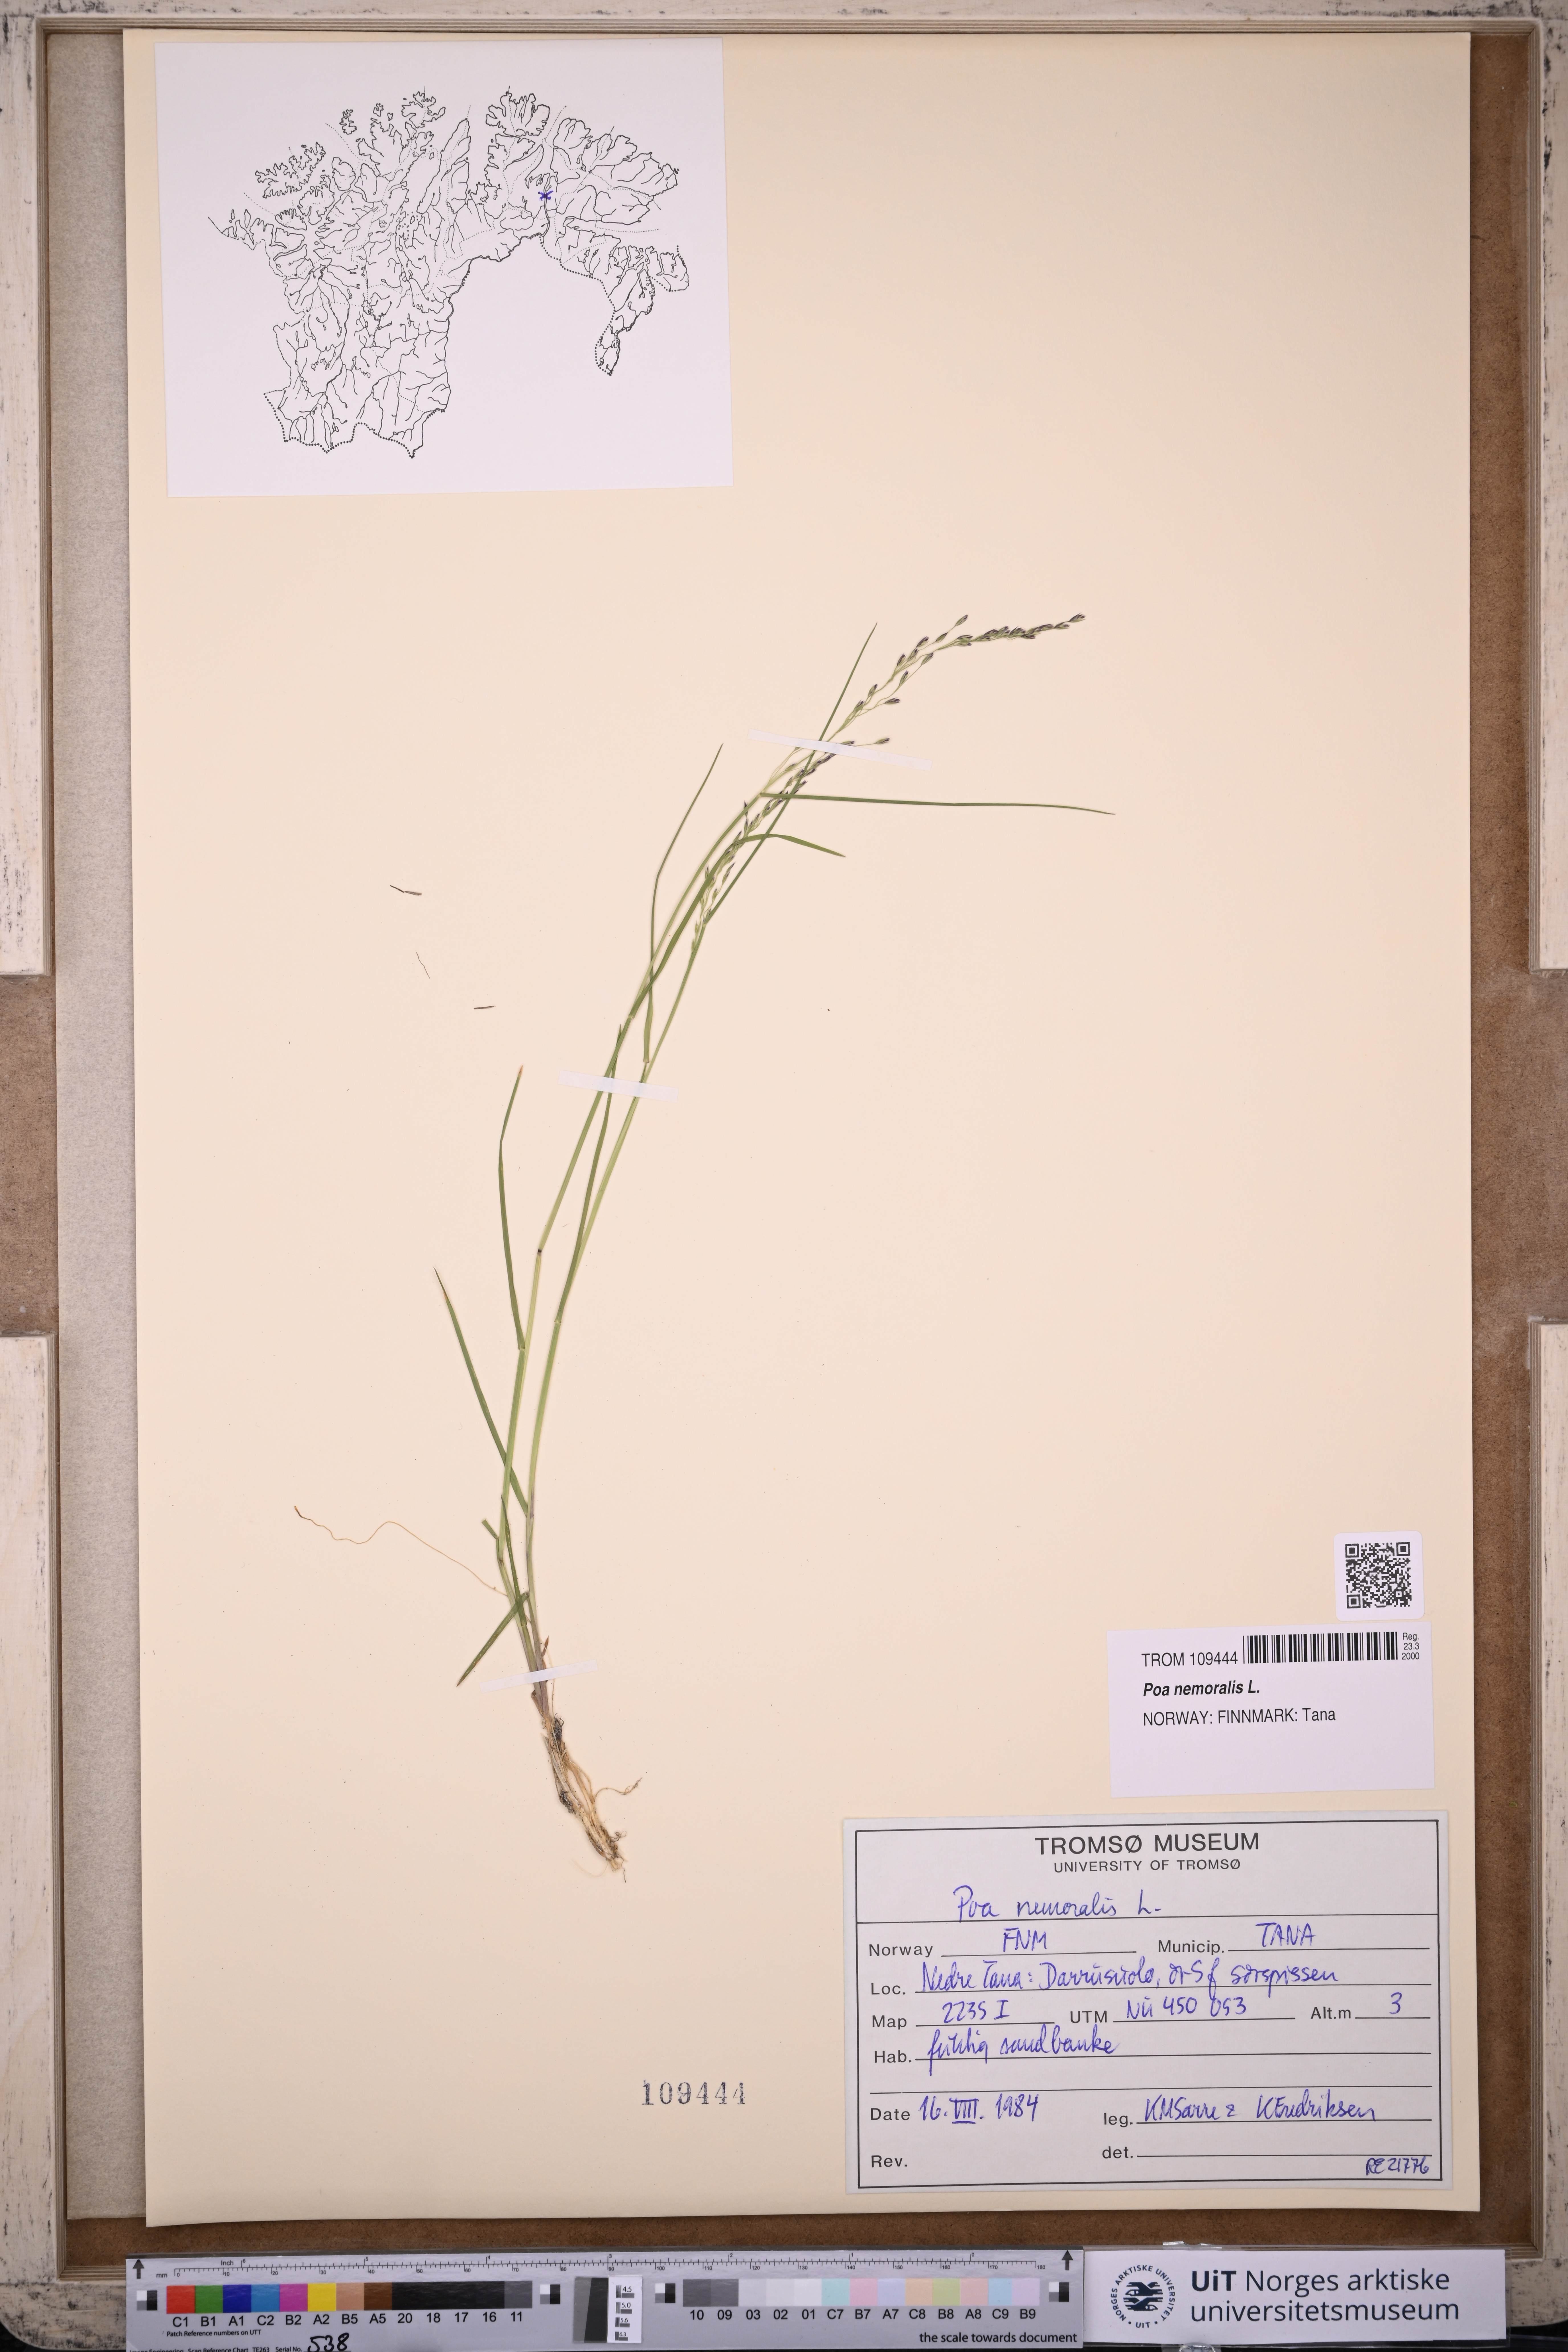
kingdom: Plantae
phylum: Tracheophyta
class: Liliopsida
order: Poales
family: Poaceae
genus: Poa
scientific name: Poa nemoralis
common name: Wood bluegrass
